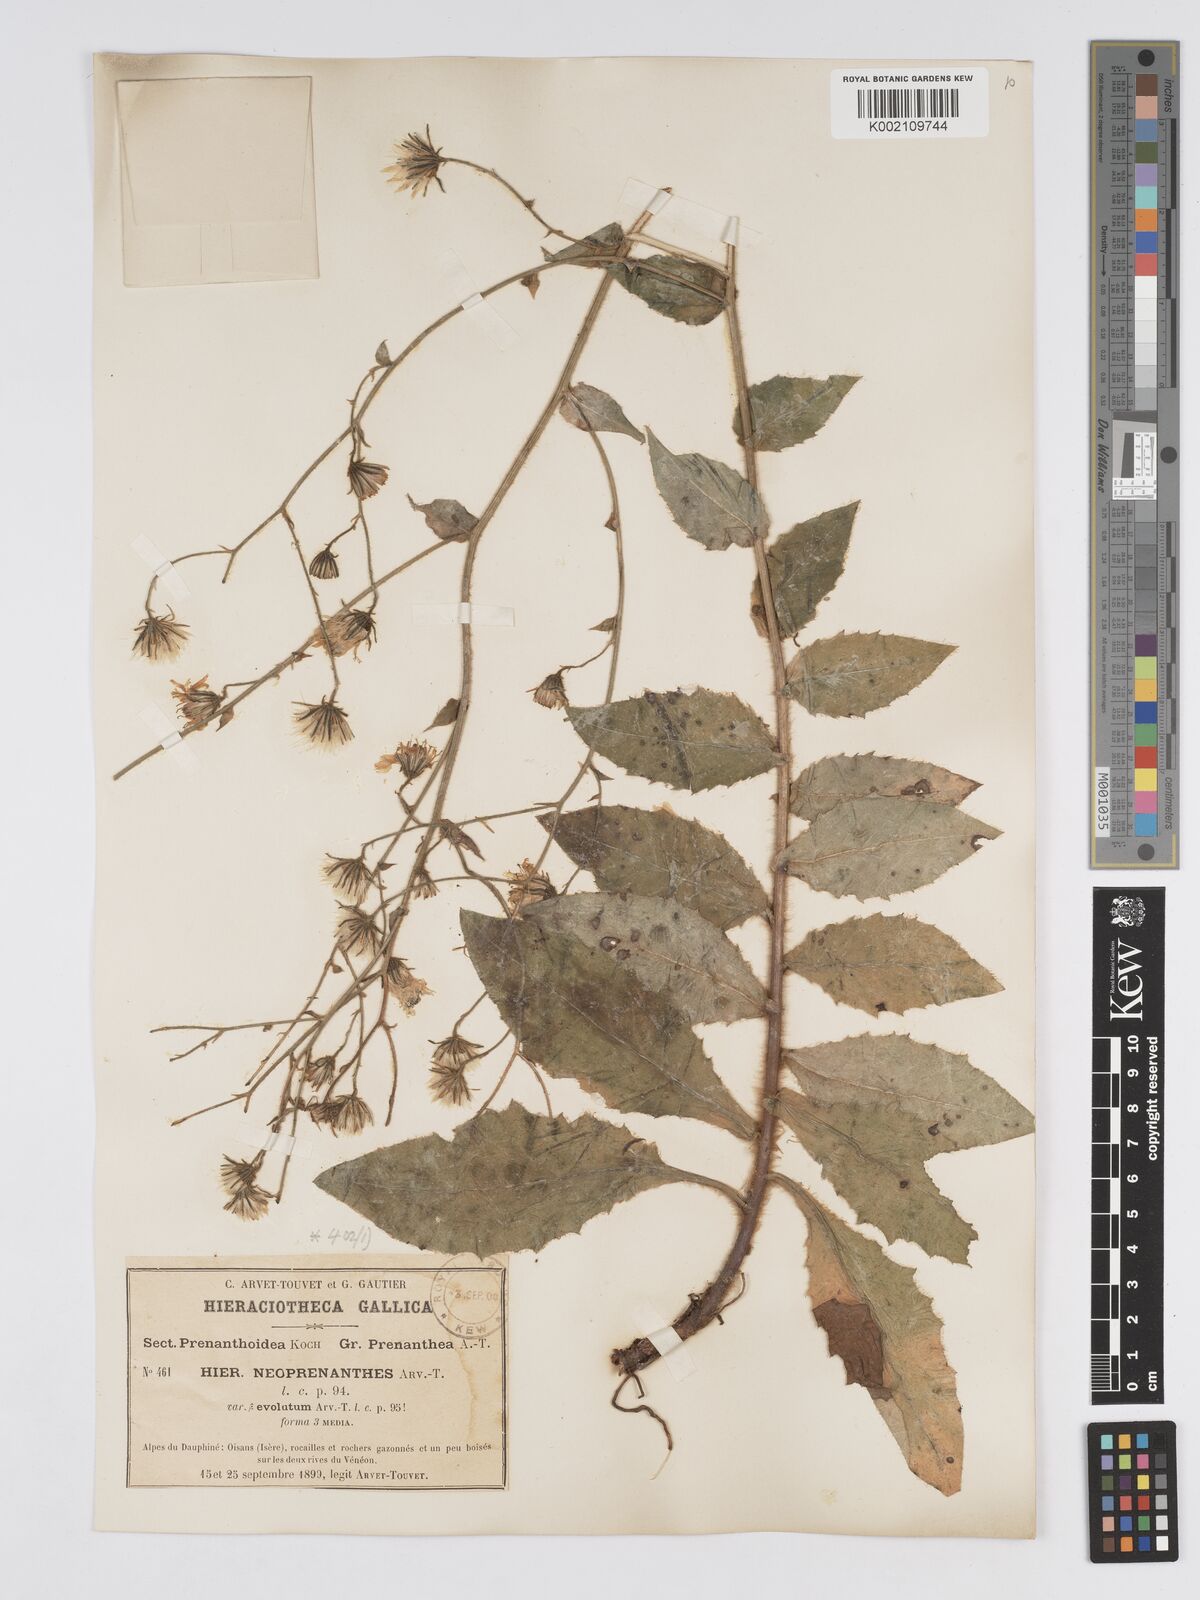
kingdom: Plantae
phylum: Tracheophyta
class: Magnoliopsida
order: Asterales
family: Asteraceae
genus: Hieracium
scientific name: Hieracium symphytaceum
